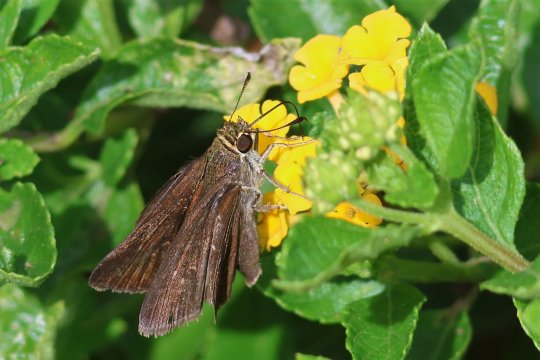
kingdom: Animalia
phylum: Arthropoda
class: Insecta
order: Lepidoptera
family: Hesperiidae
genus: Euphyes
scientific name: Euphyes vestris
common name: Dun Skipper
